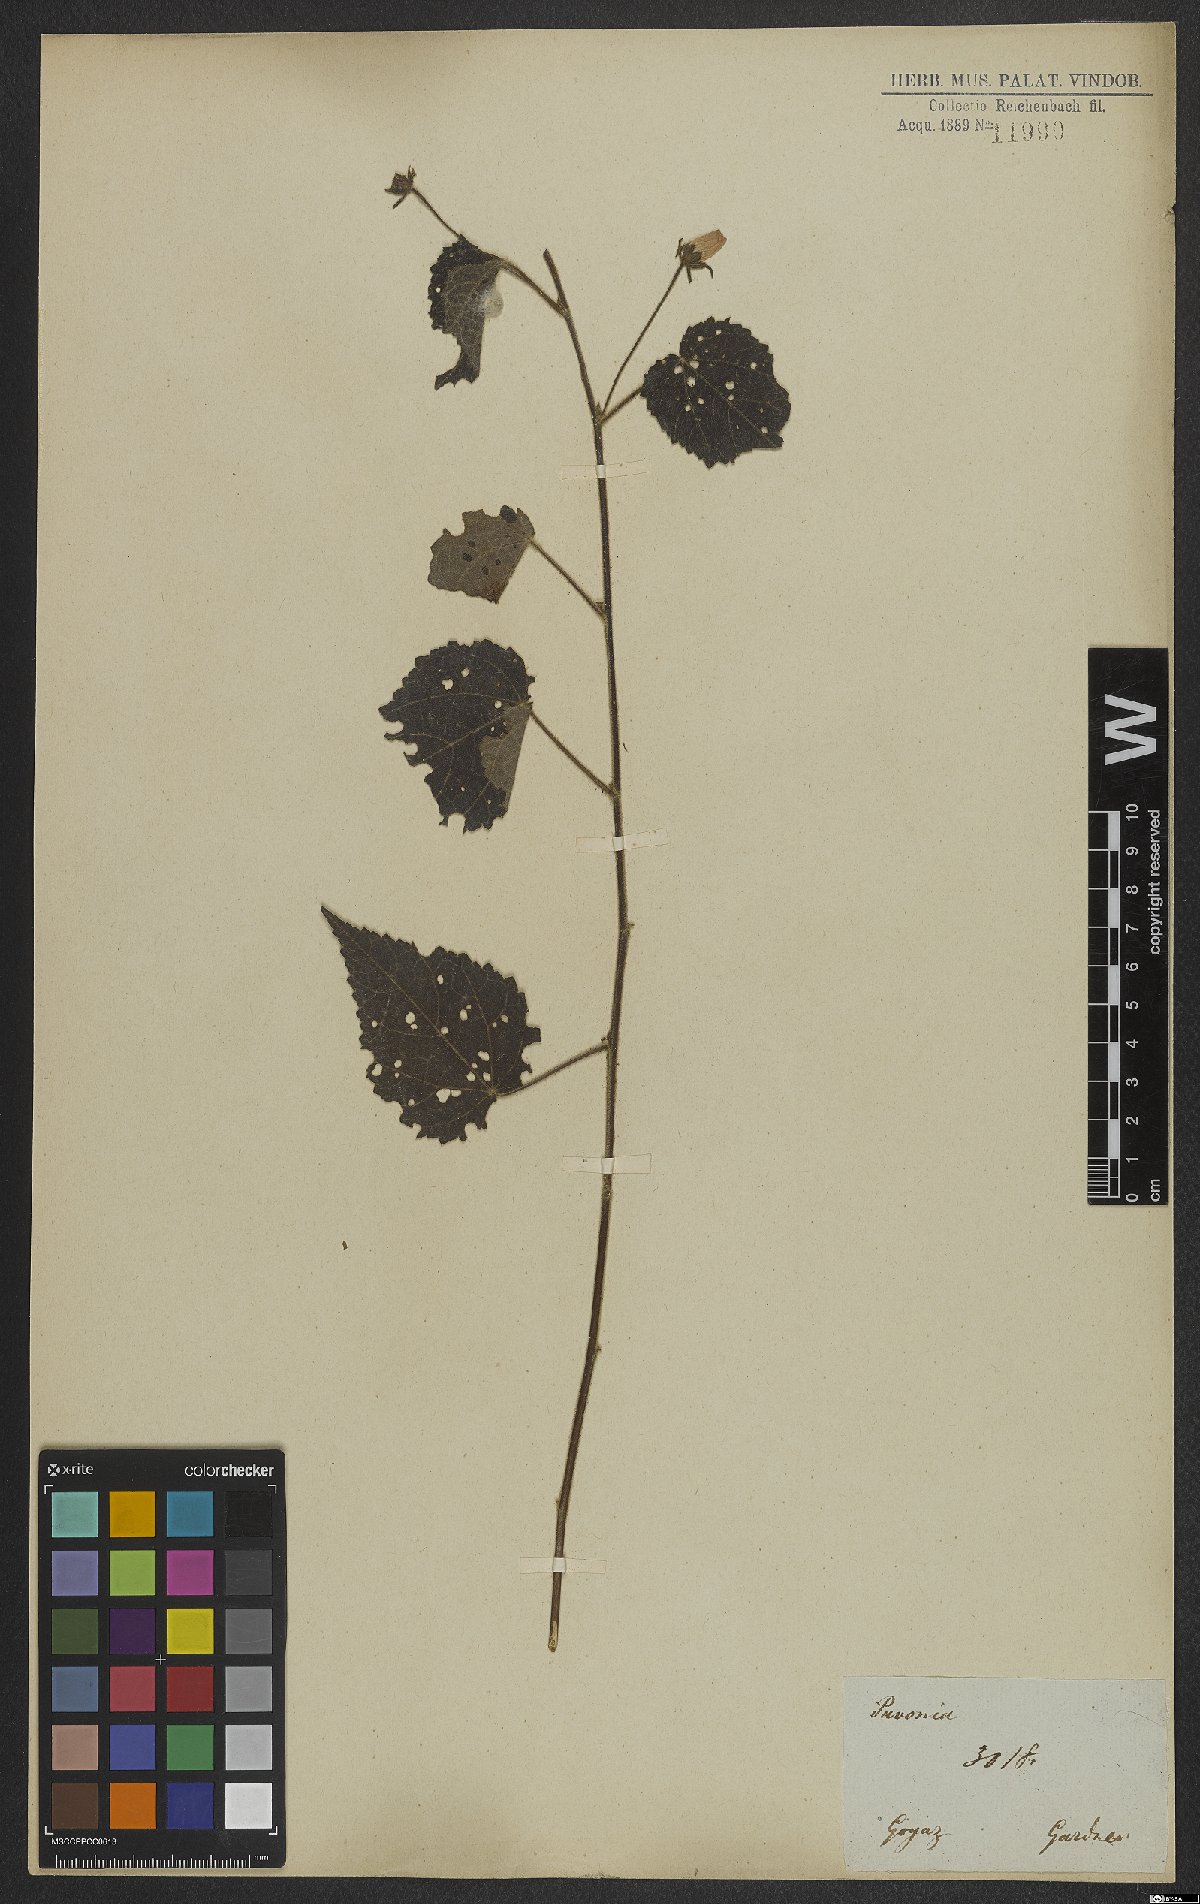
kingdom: Plantae
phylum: Tracheophyta
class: Magnoliopsida
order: Malvales
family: Malvaceae
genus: Pavonia
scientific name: Pavonia
